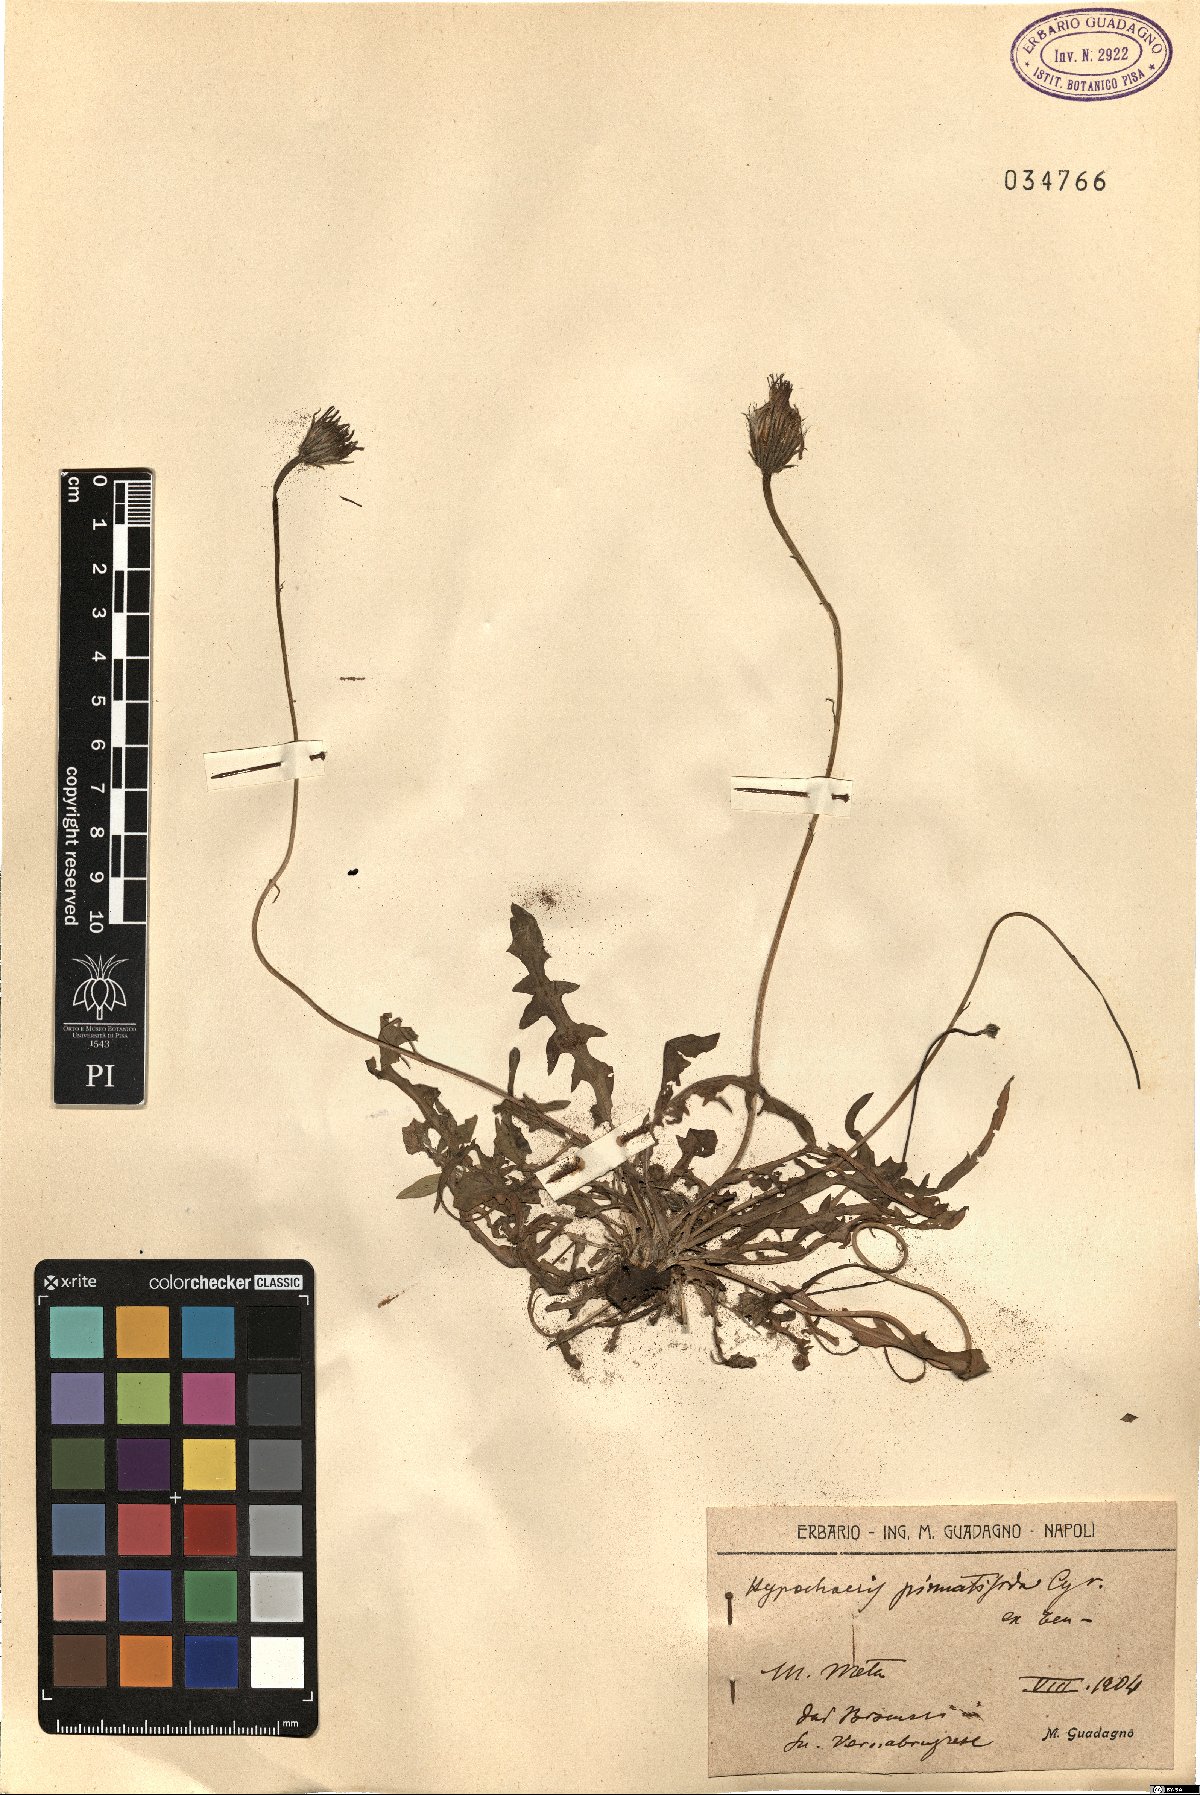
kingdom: Plantae
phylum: Tracheophyta
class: Magnoliopsida
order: Asterales
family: Asteraceae
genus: Hypochaeris
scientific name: Hypochaeris cretensis
